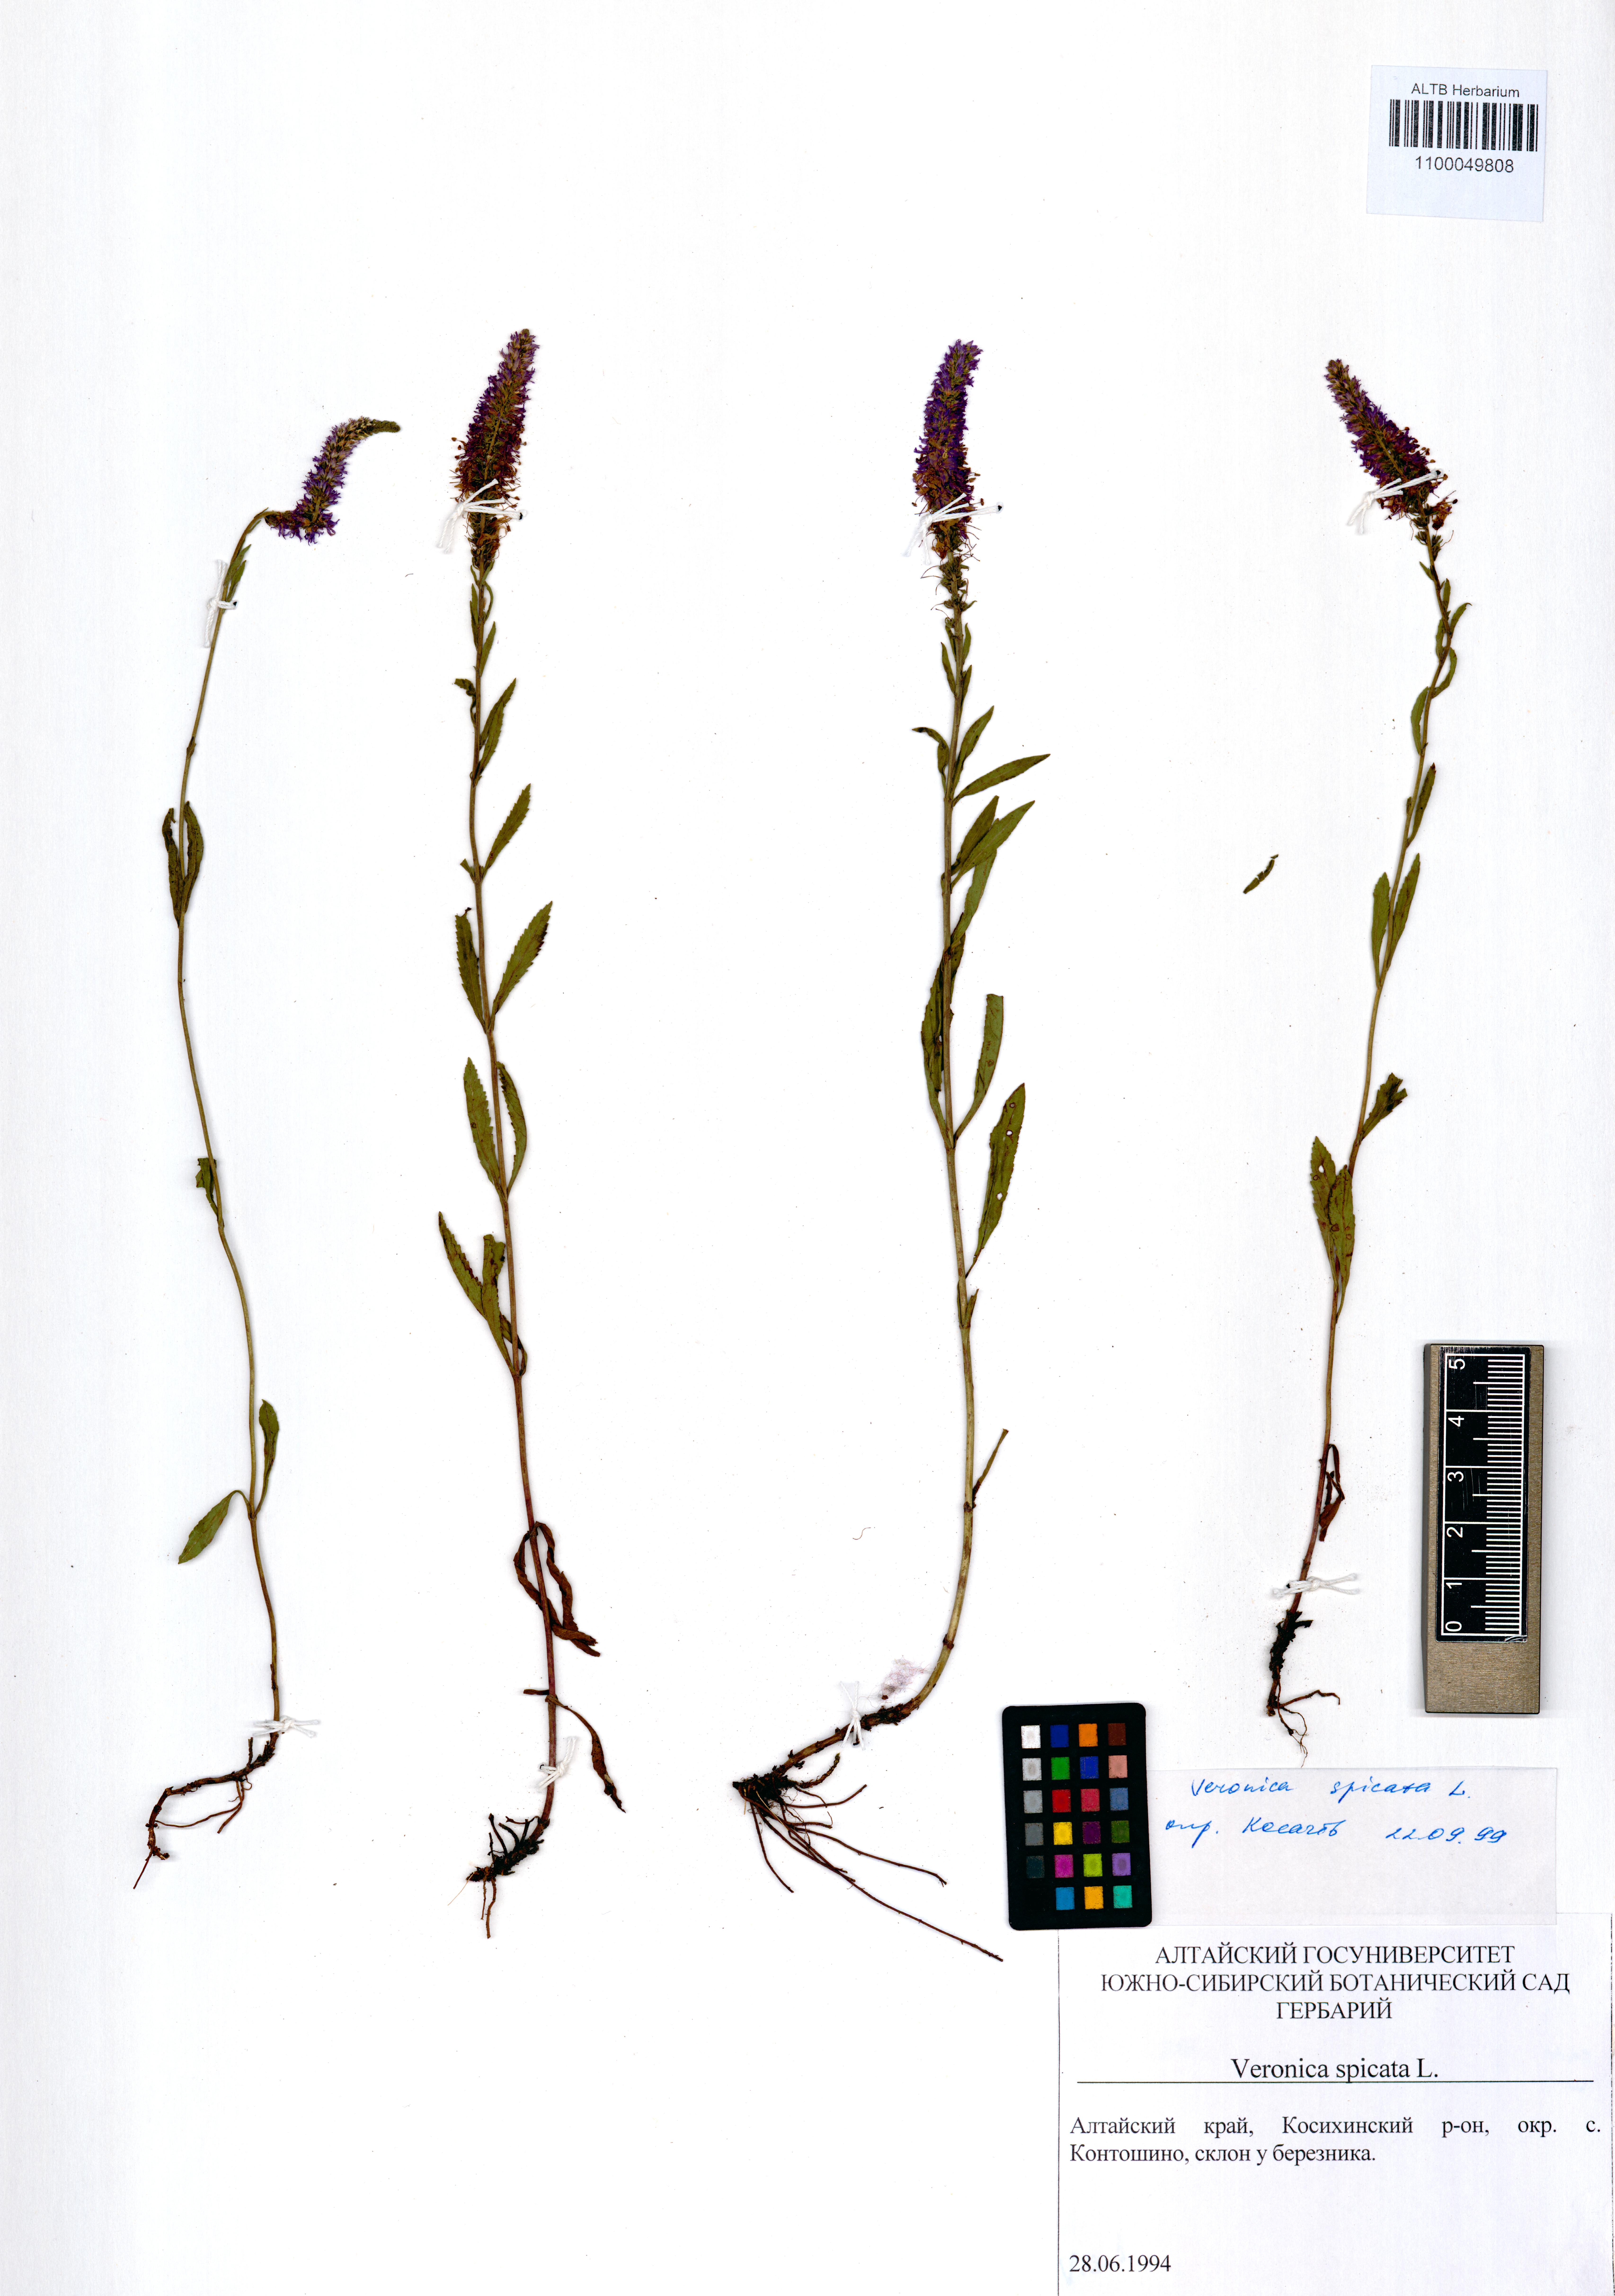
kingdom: Plantae
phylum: Tracheophyta
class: Magnoliopsida
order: Lamiales
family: Plantaginaceae
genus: Veronica
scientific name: Veronica spicata
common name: Spiked speedwell
